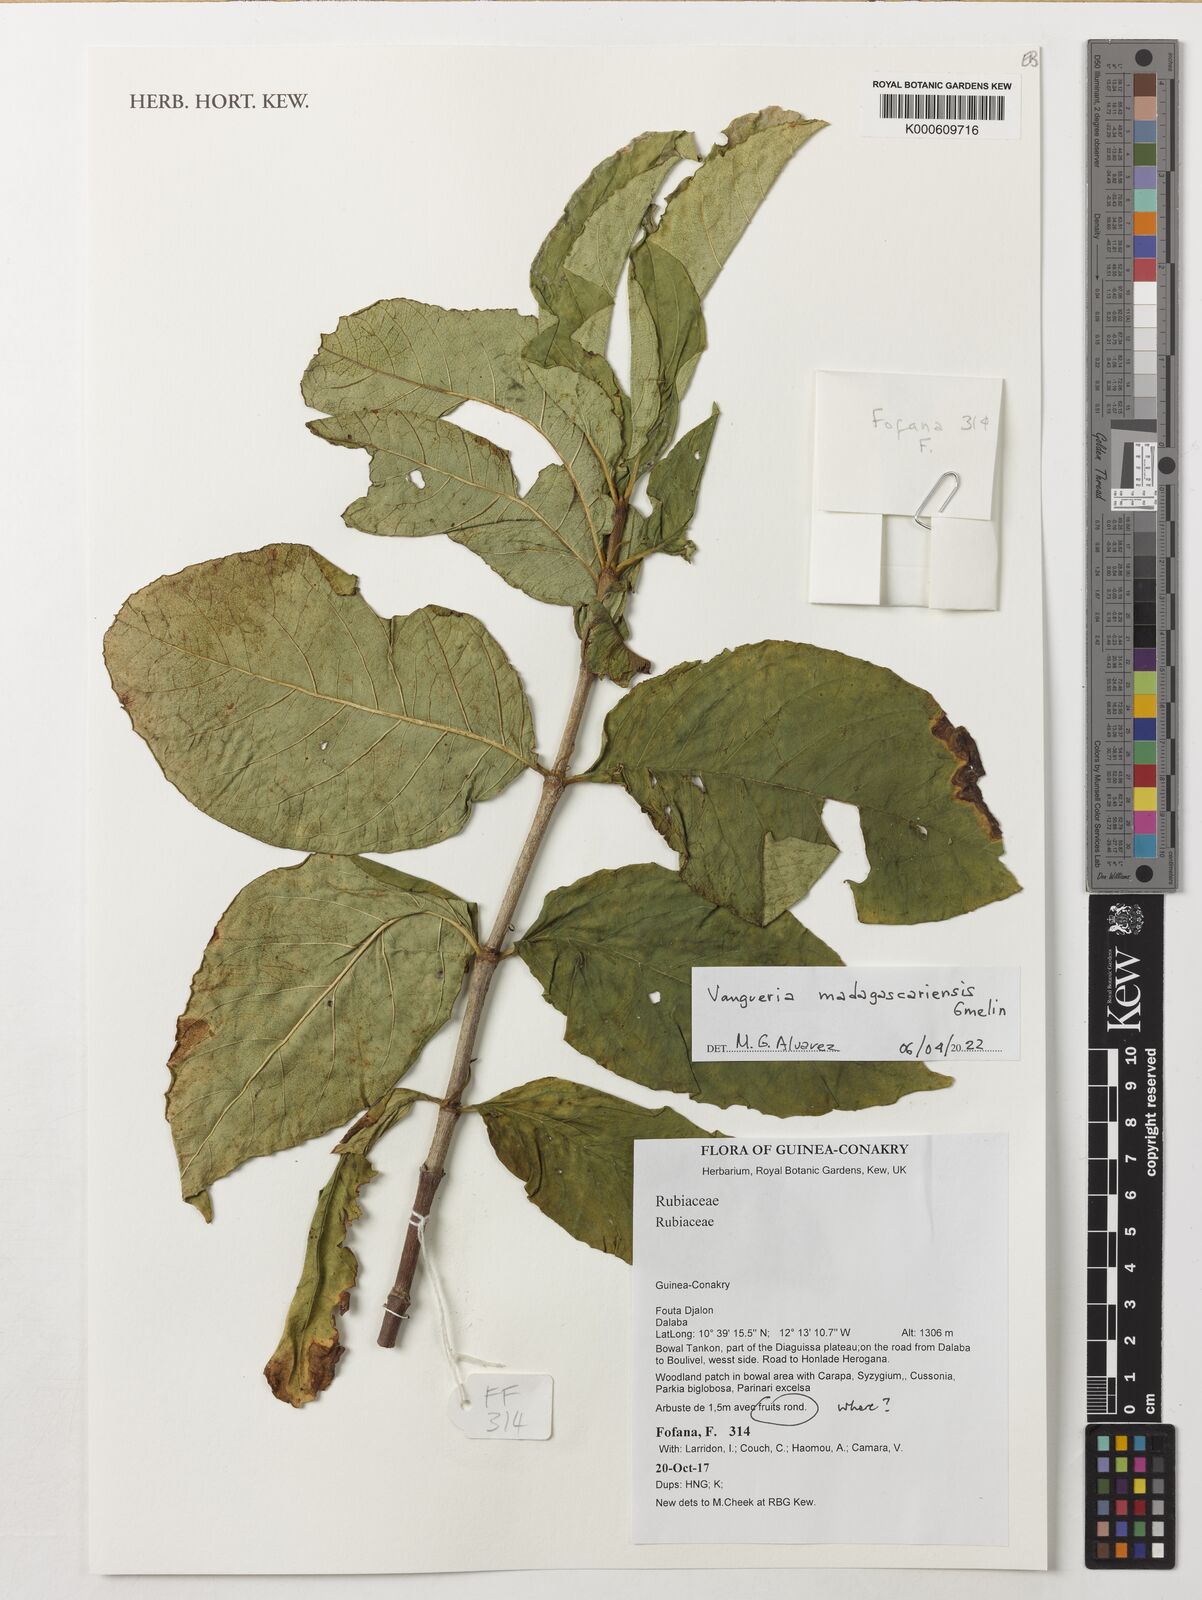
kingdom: Plantae
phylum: Tracheophyta
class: Magnoliopsida
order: Gentianales
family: Rubiaceae
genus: Vangueria
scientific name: Vangueria madagascariensis
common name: Smooth wild-medlar
